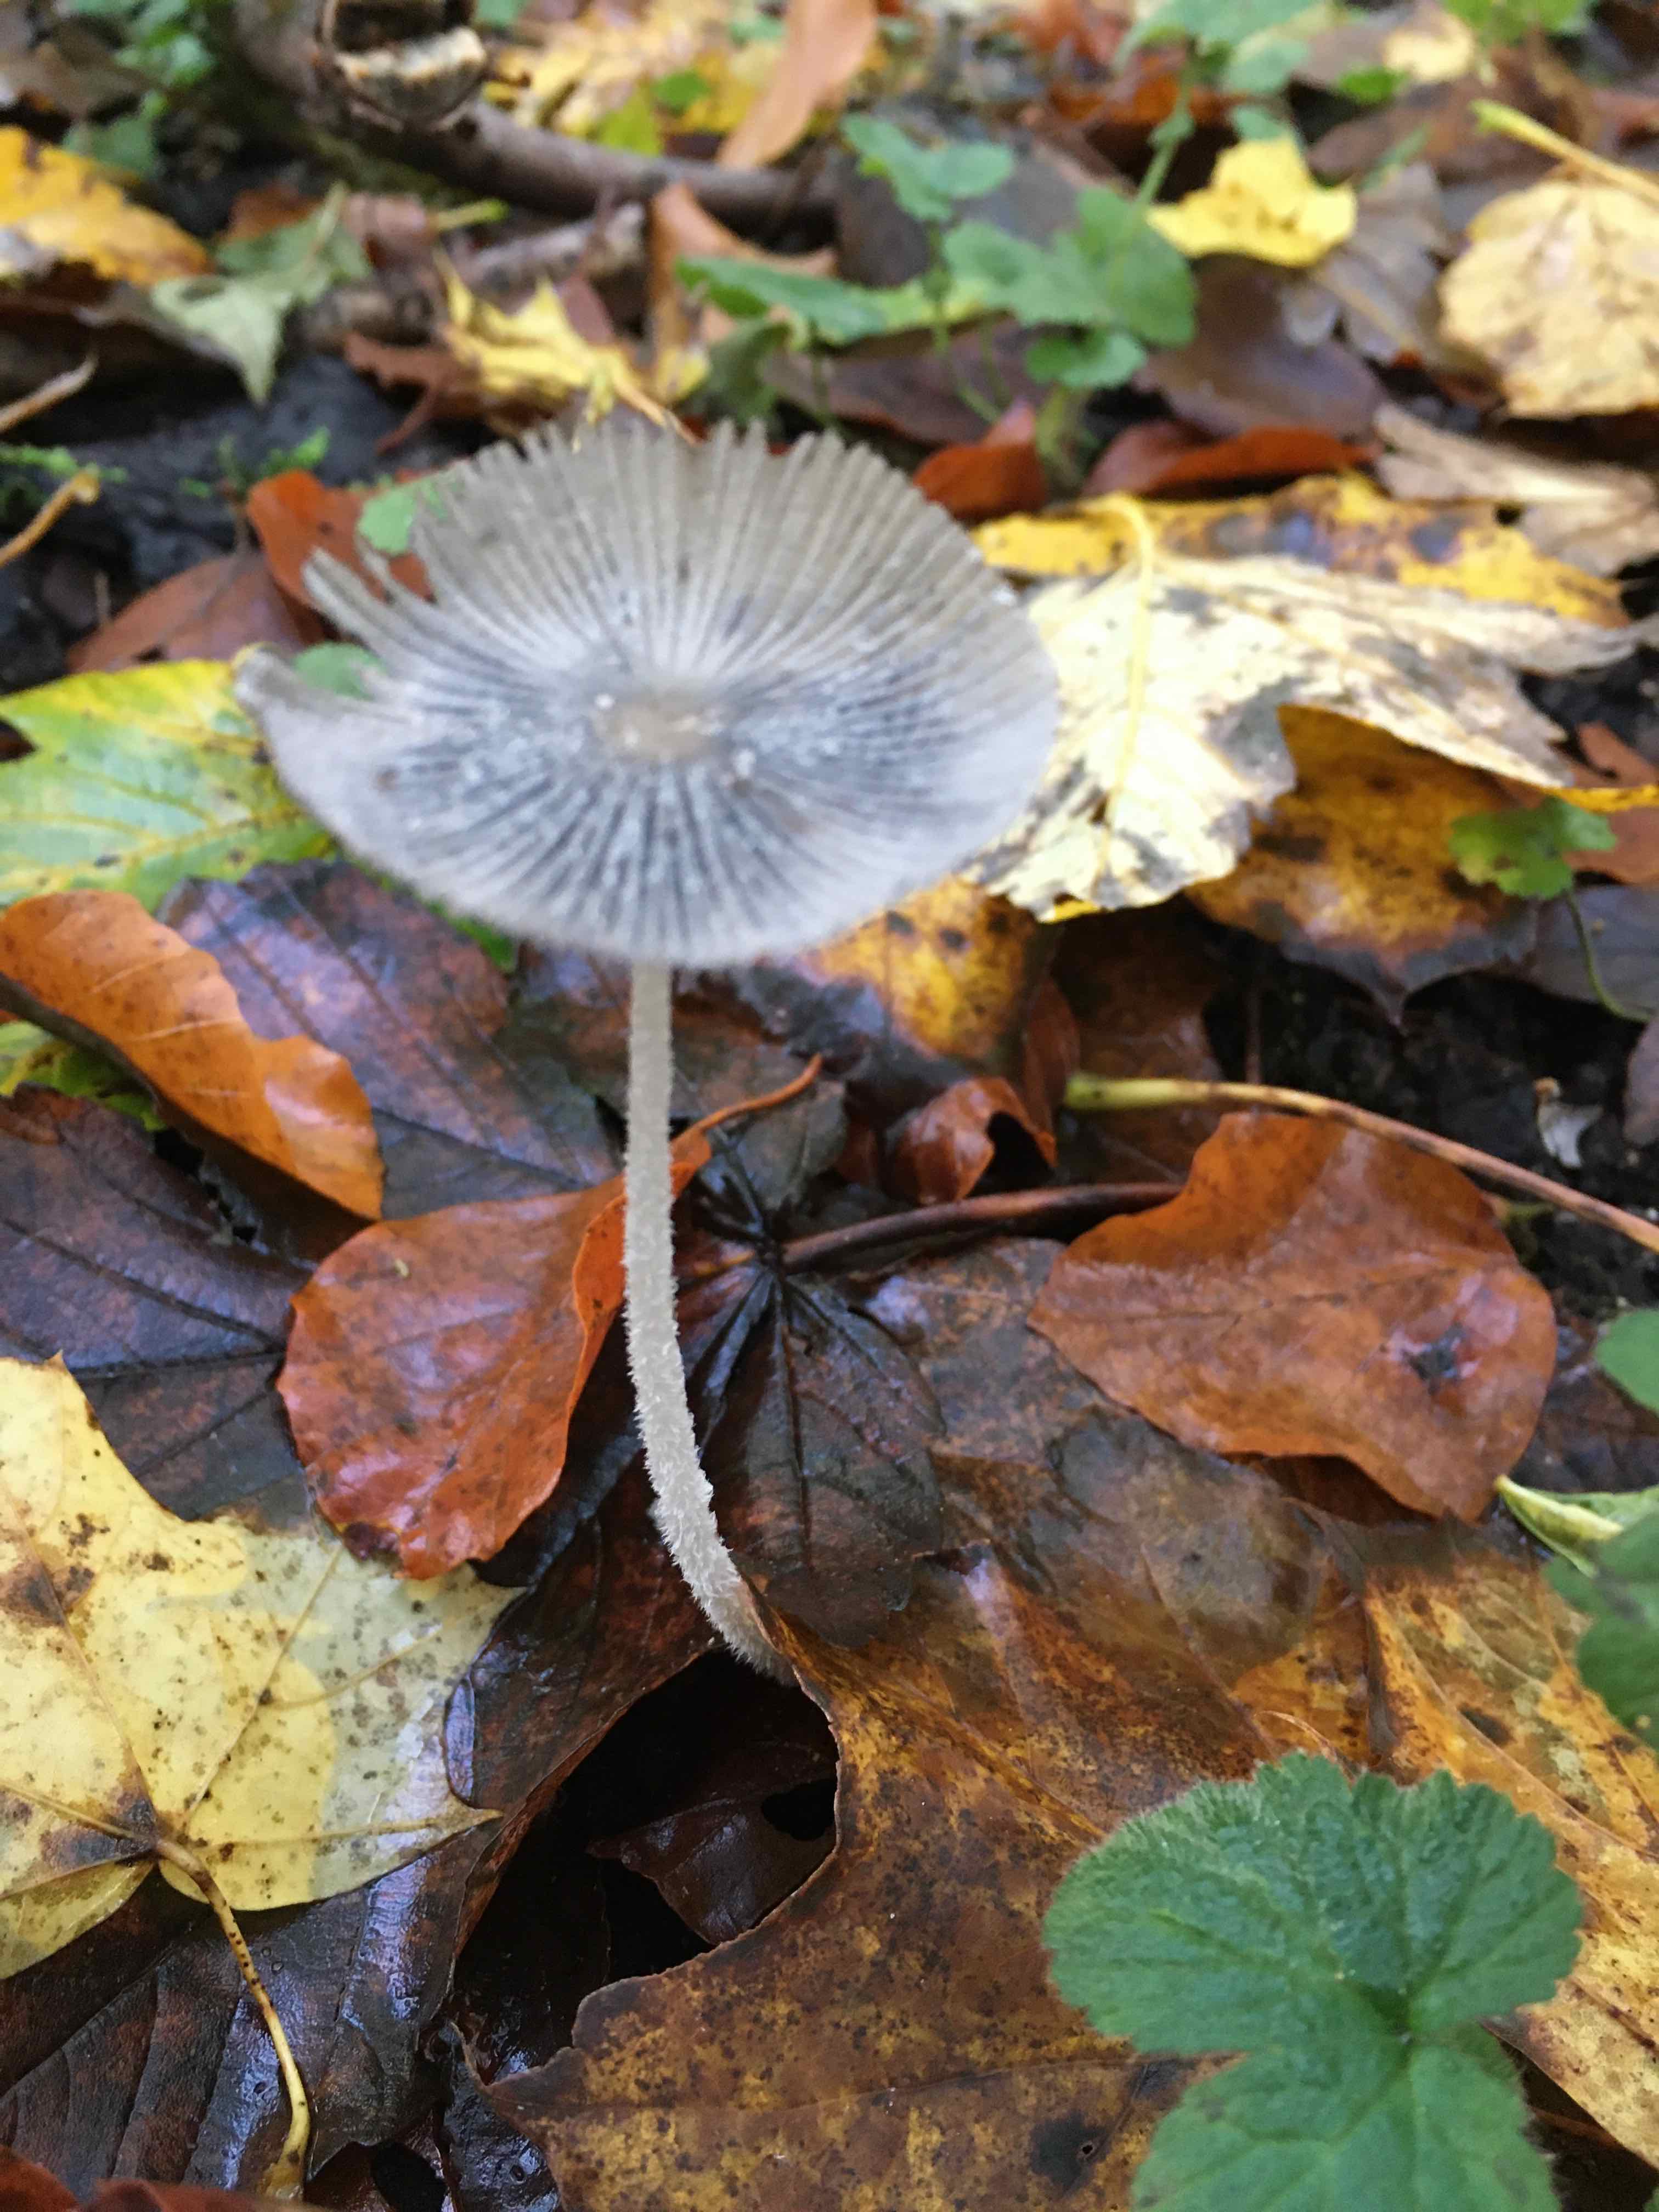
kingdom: Fungi
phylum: Basidiomycota
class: Agaricomycetes
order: Agaricales
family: Psathyrellaceae
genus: Coprinopsis
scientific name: Coprinopsis lagopus
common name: dunstokket blækhat
